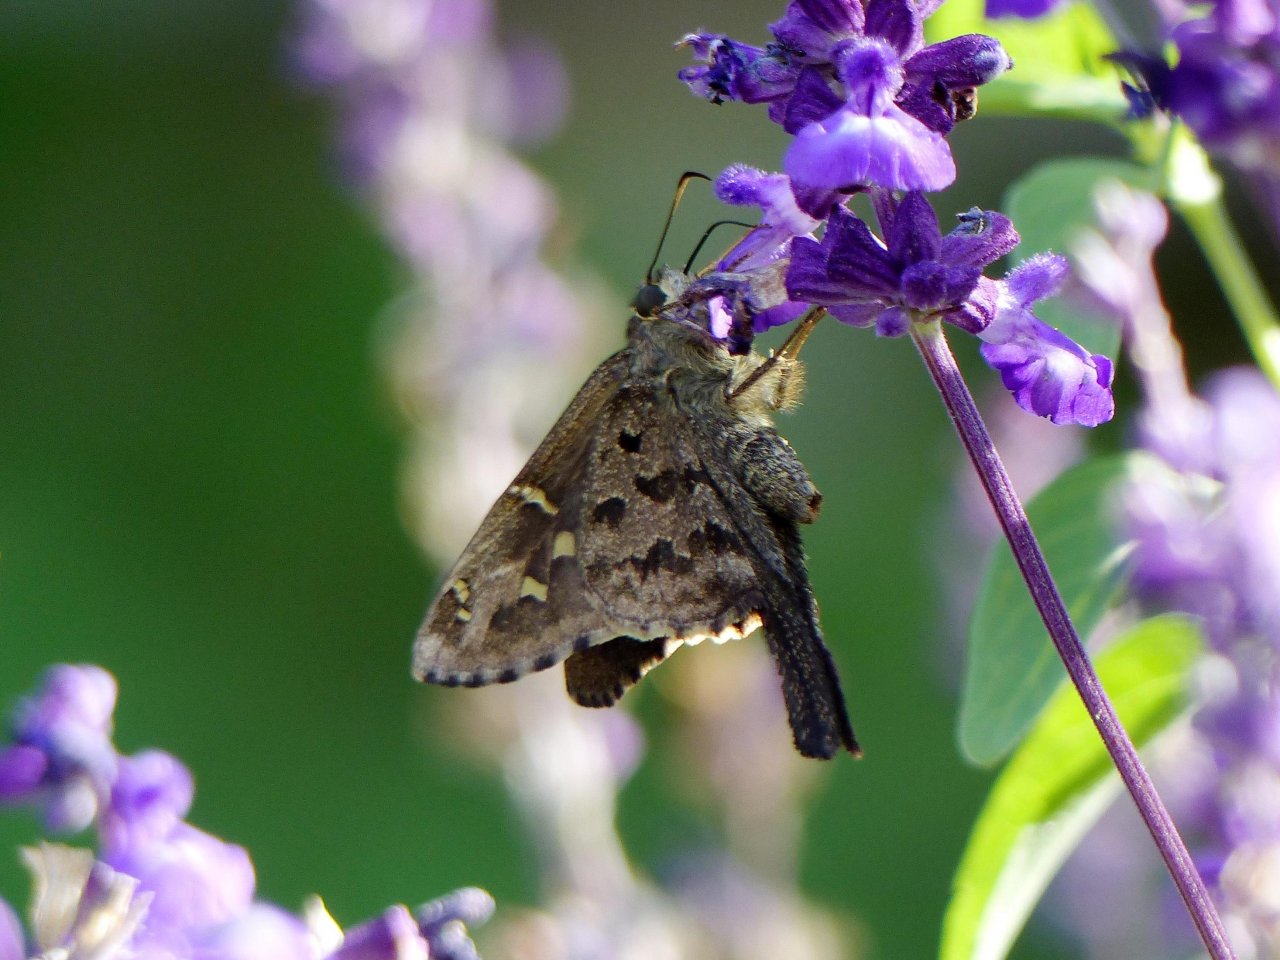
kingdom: Animalia
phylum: Arthropoda
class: Insecta
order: Lepidoptera
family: Hesperiidae
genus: Urbanus
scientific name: Urbanus dorantes
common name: Dorantes Longtail
